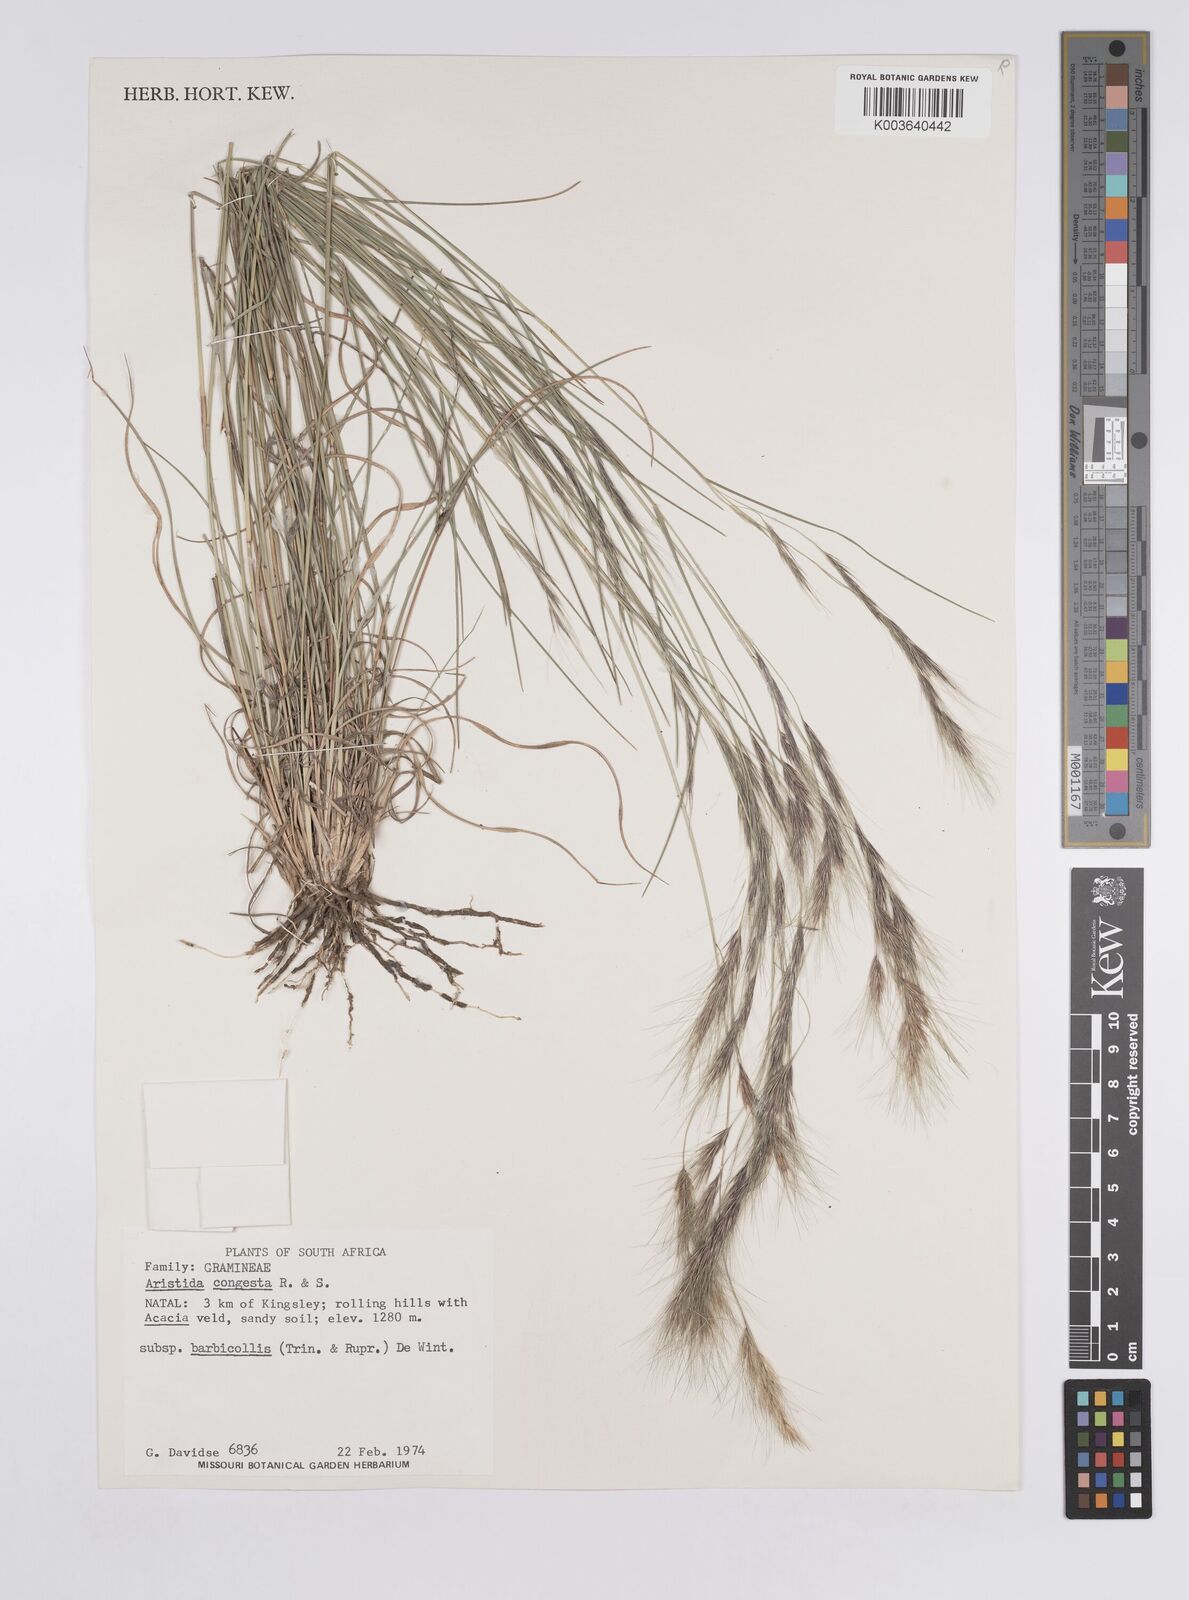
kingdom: Plantae
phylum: Tracheophyta
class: Liliopsida
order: Poales
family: Poaceae
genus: Aristida
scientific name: Aristida barbicollis
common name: Spreading prickle grass
